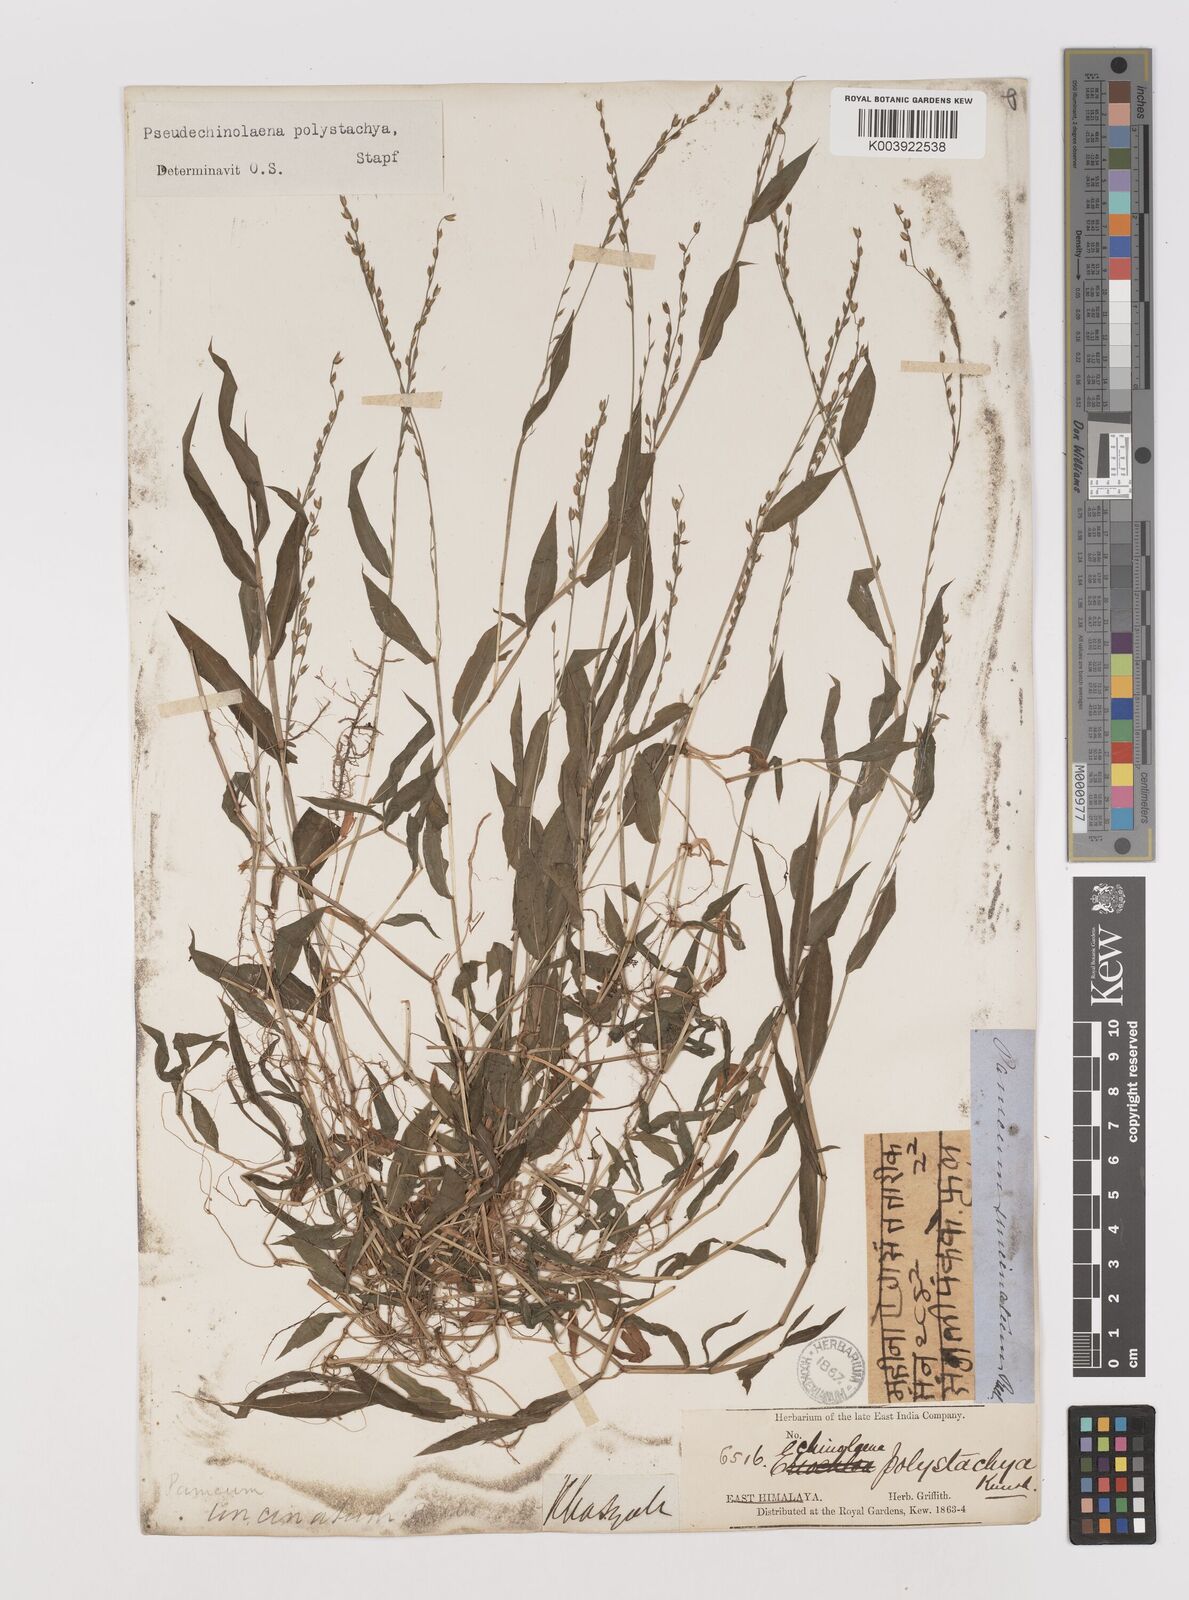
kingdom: Plantae
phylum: Tracheophyta
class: Liliopsida
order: Poales
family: Poaceae
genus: Pseudechinolaena
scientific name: Pseudechinolaena polystachya
